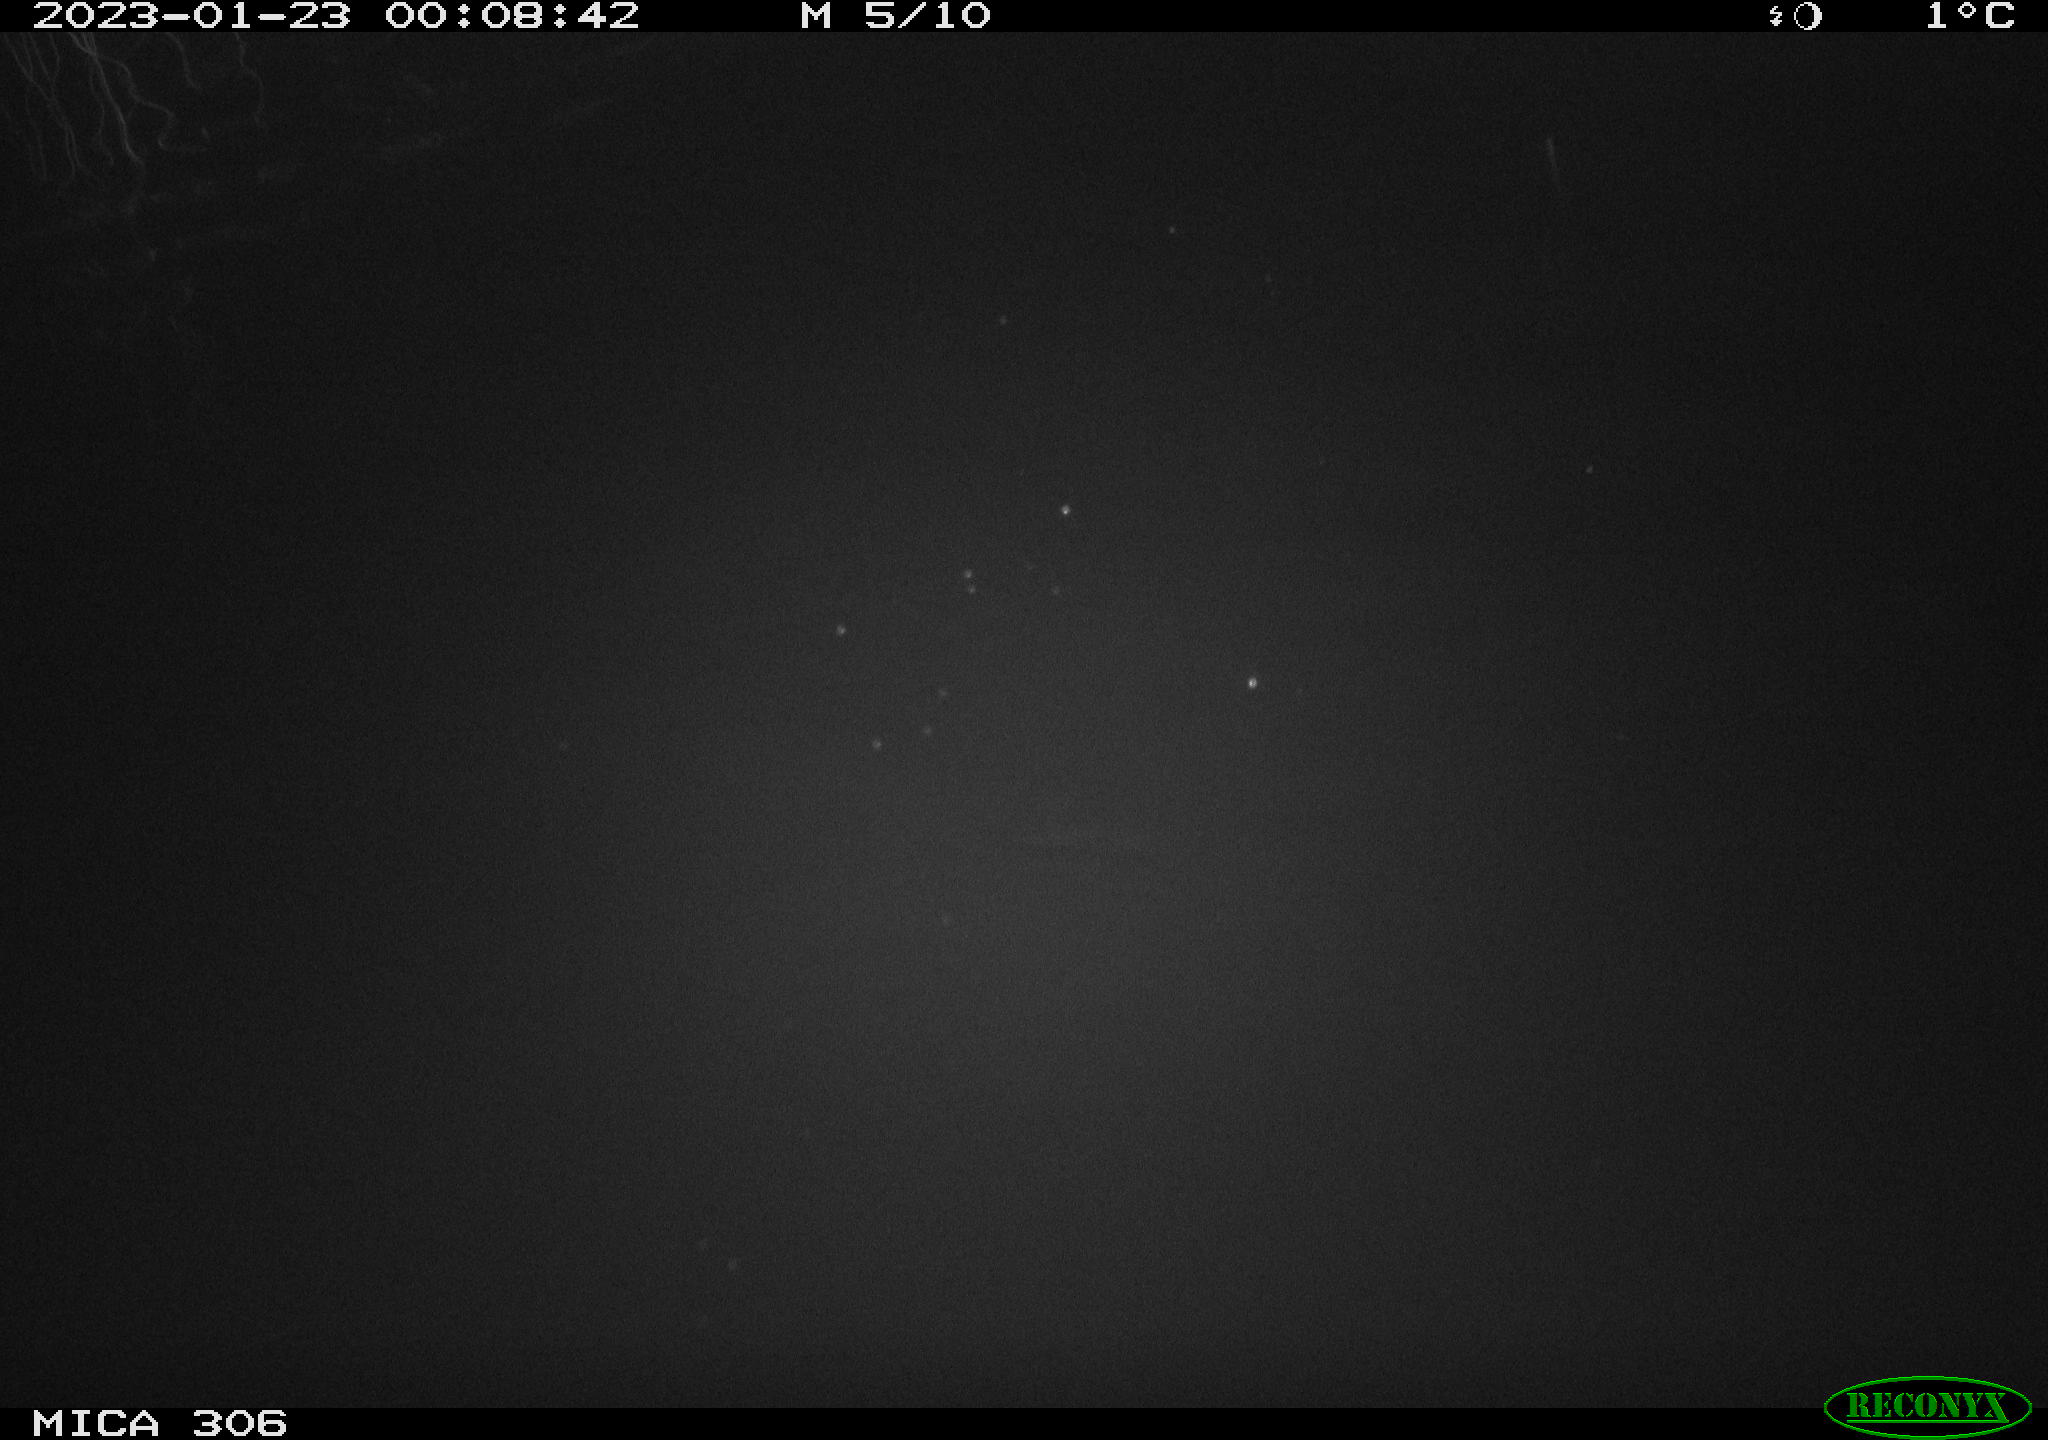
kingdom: Animalia
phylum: Chordata
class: Mammalia
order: Rodentia
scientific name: Rodentia
